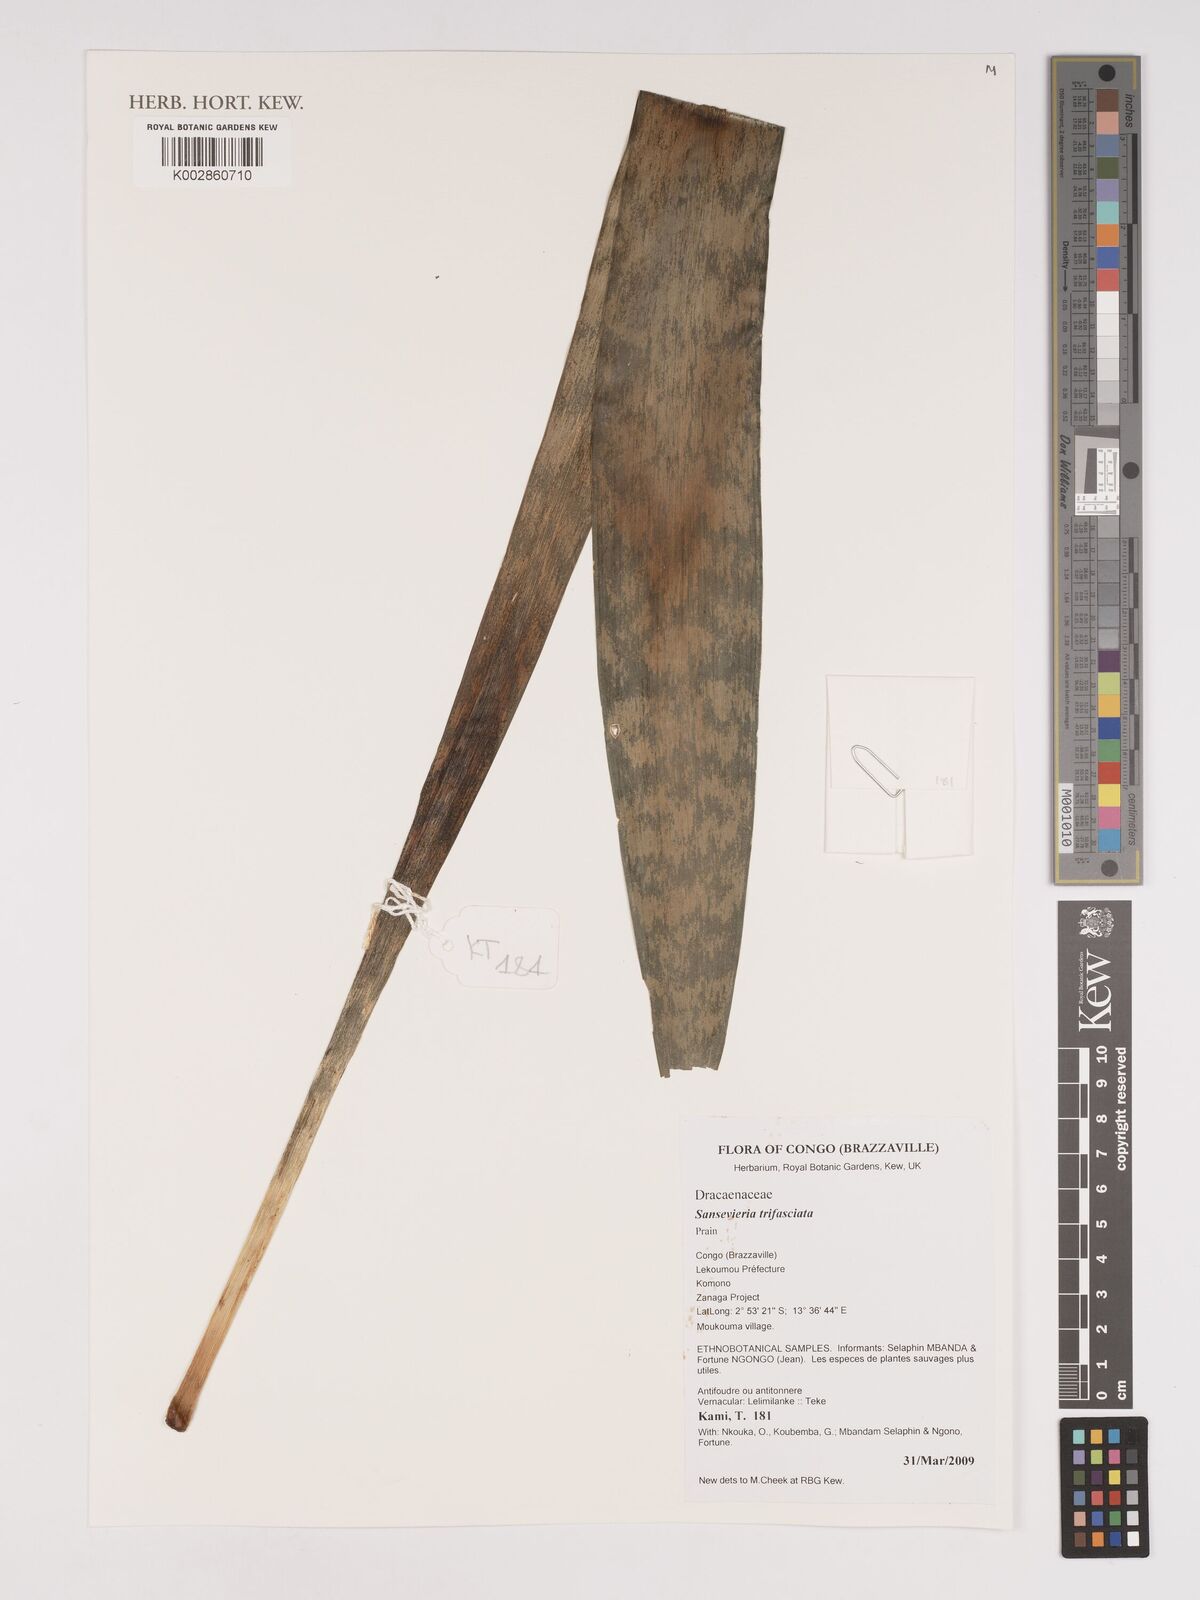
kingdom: Plantae
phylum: Tracheophyta
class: Liliopsida
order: Asparagales
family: Asparagaceae
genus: Dracaena
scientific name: Dracaena trifasciata
